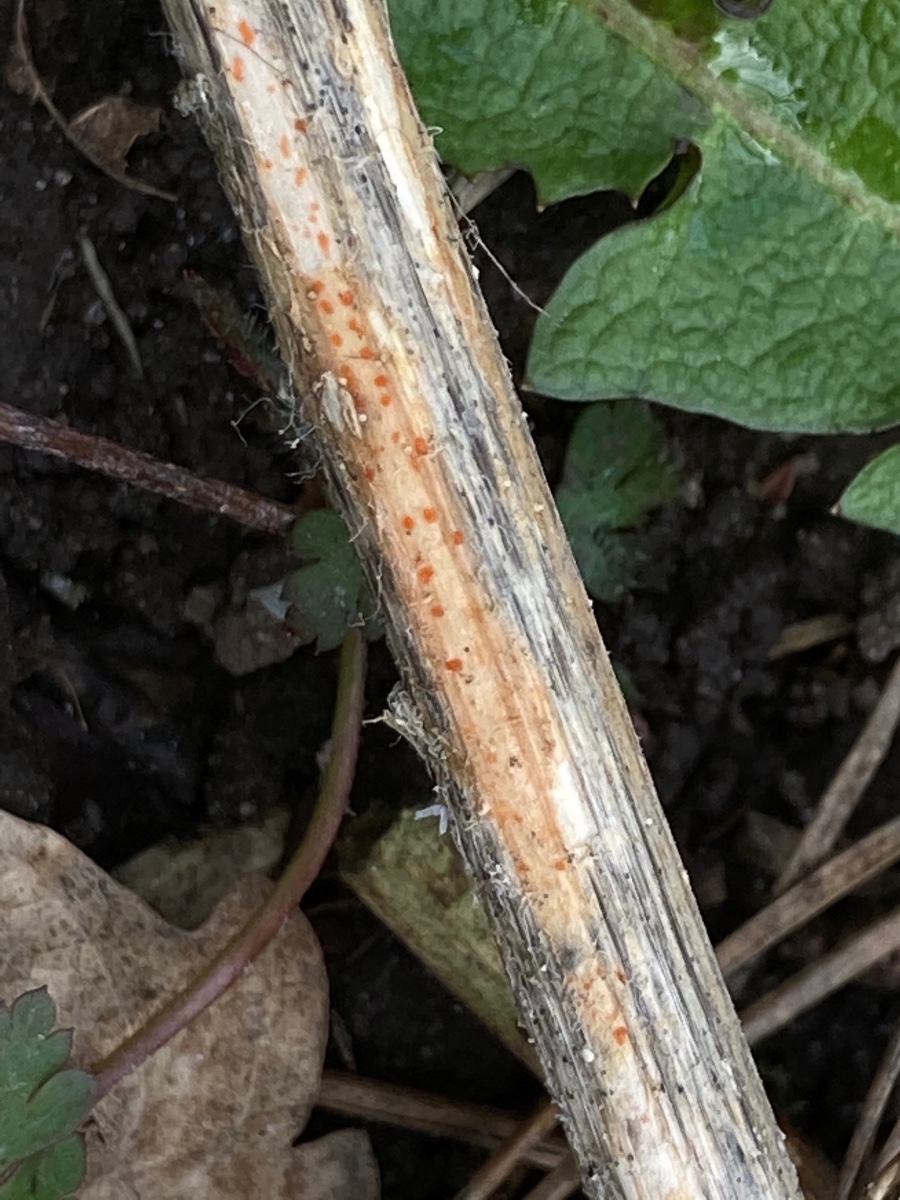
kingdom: Fungi
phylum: Ascomycota
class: Leotiomycetes
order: Helotiales
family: Calloriaceae
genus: Calloria
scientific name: Calloria urticae
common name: nælde-orangeskive
